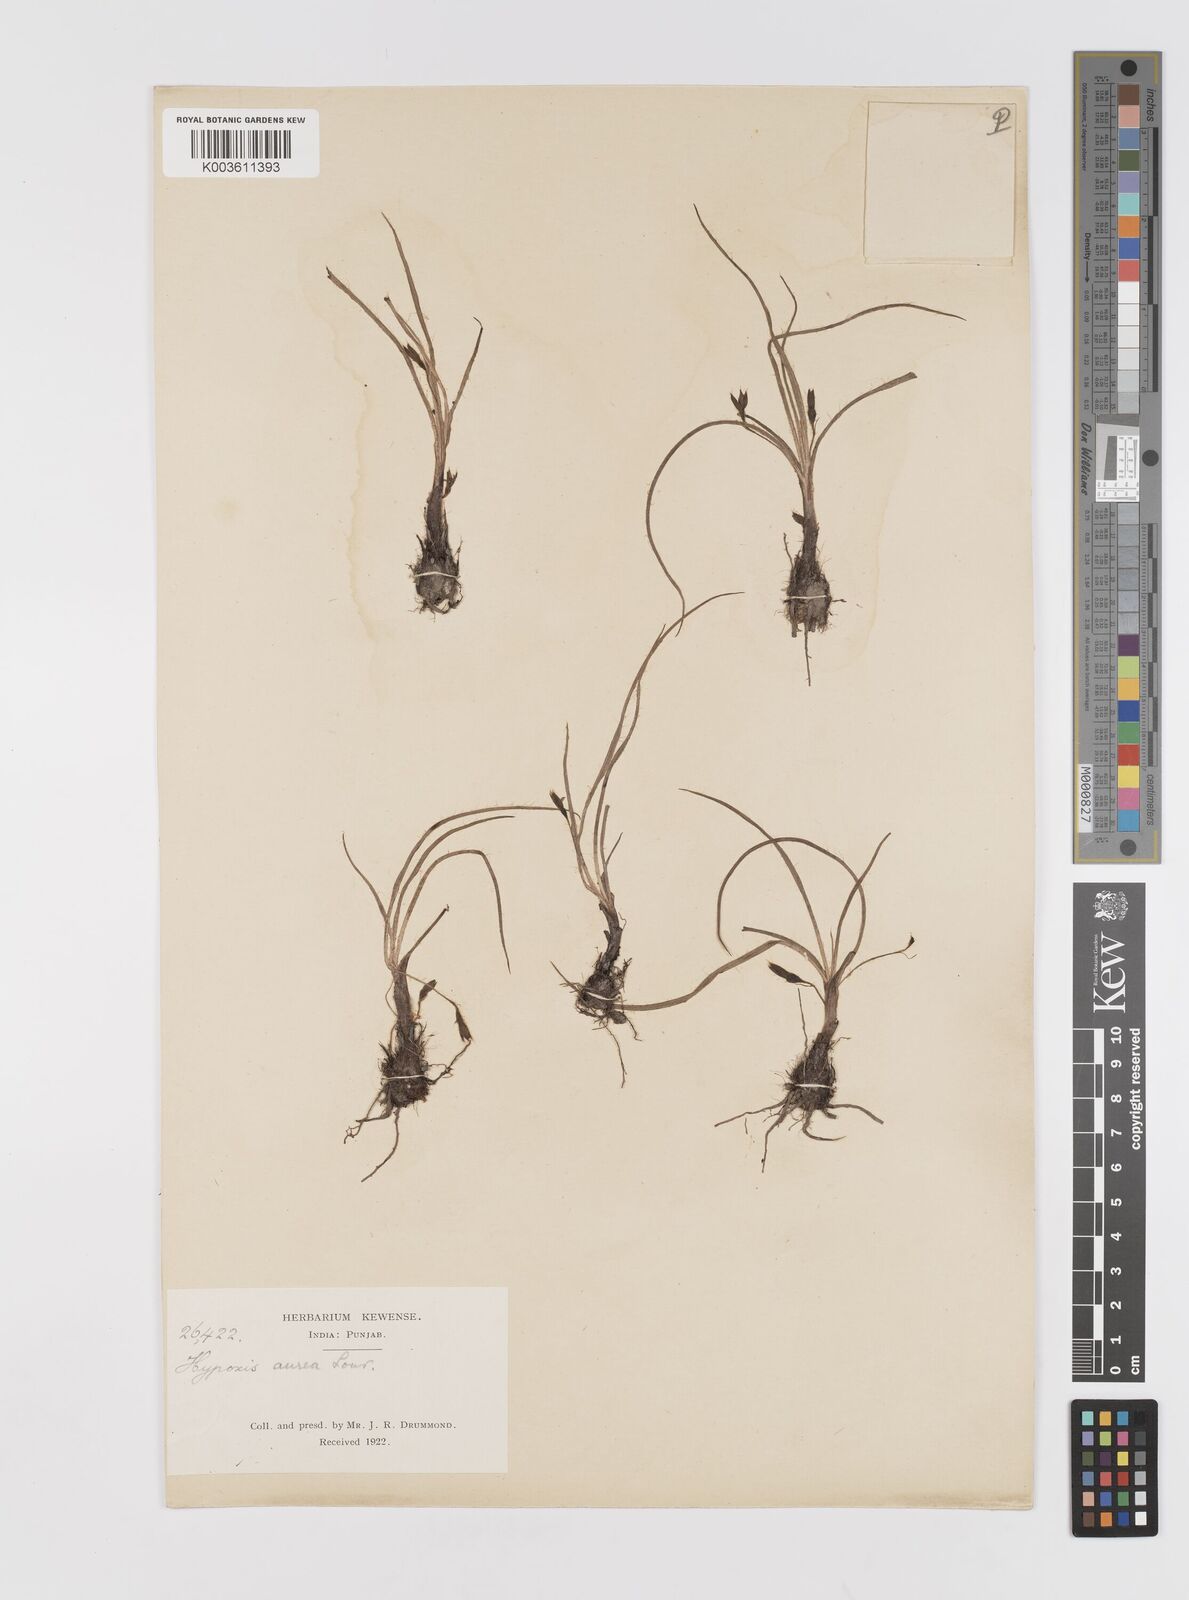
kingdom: Plantae
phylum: Tracheophyta
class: Liliopsida
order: Asparagales
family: Hypoxidaceae
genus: Hypoxis
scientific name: Hypoxis aurea
